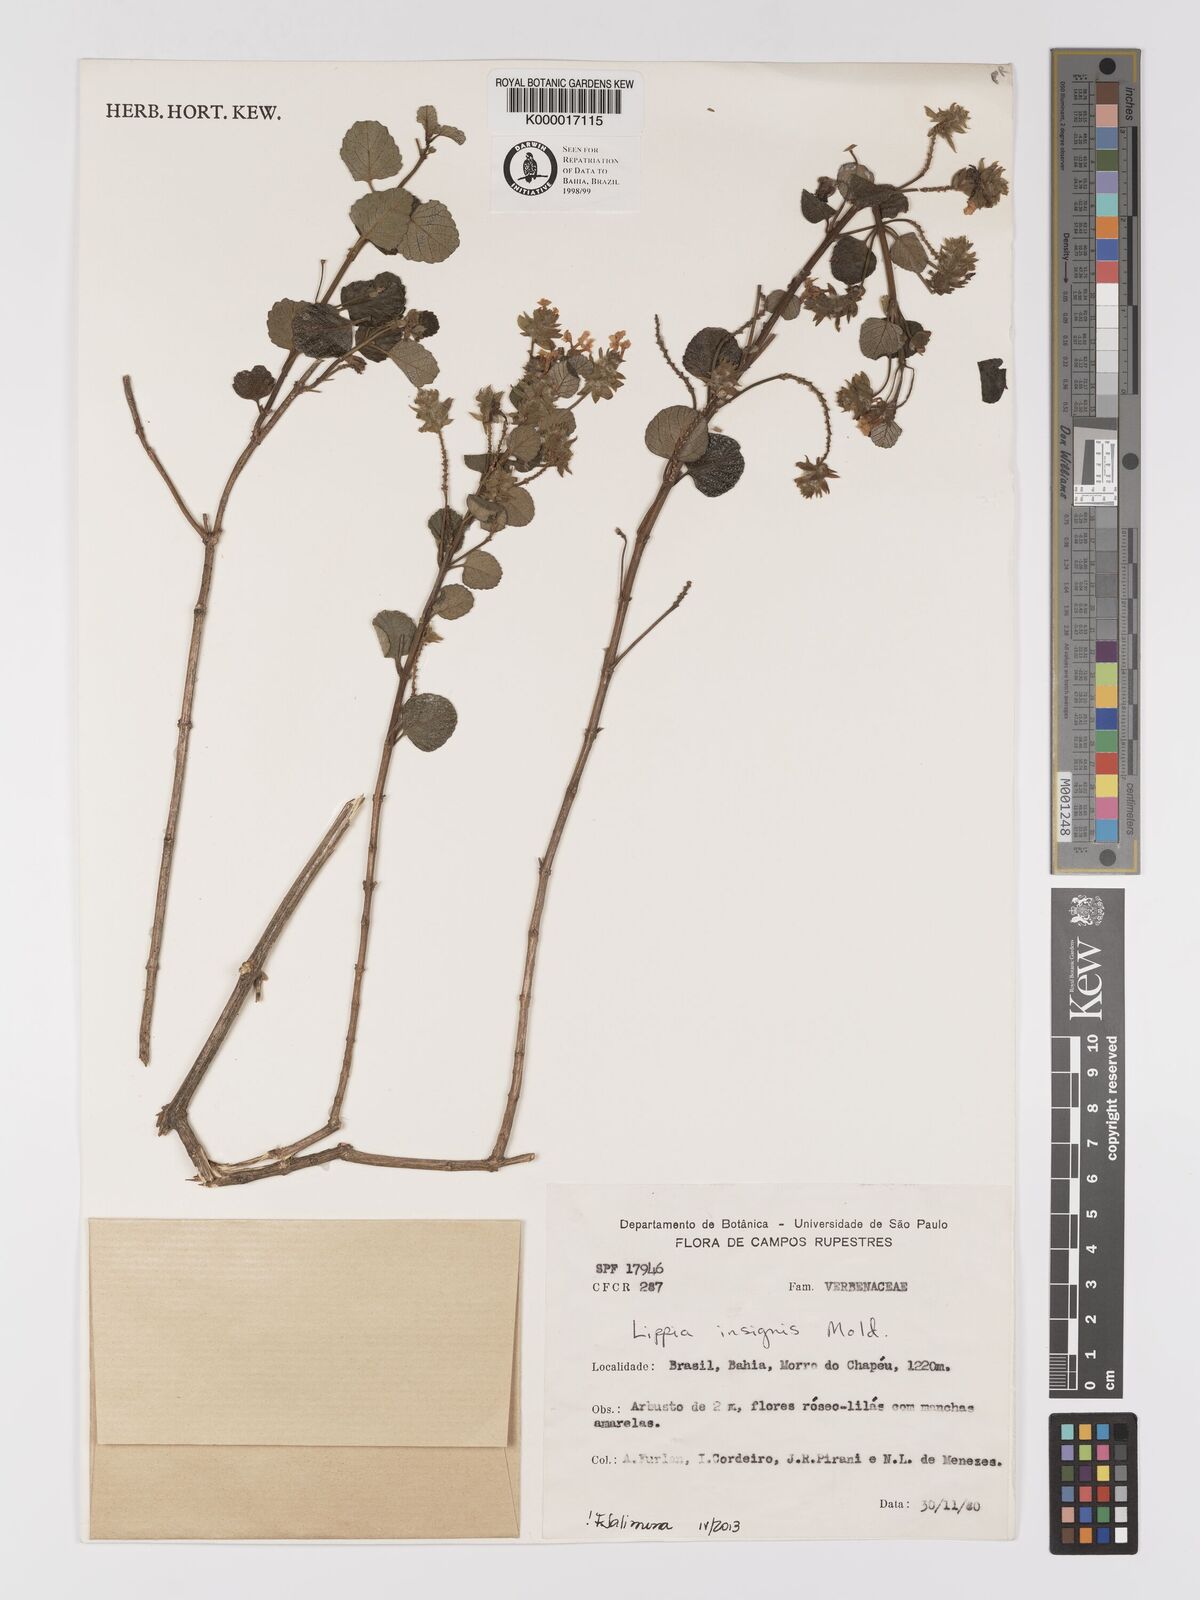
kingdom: Plantae
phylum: Tracheophyta
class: Magnoliopsida
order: Lamiales
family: Verbenaceae
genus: Lippia
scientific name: Lippia insignis
